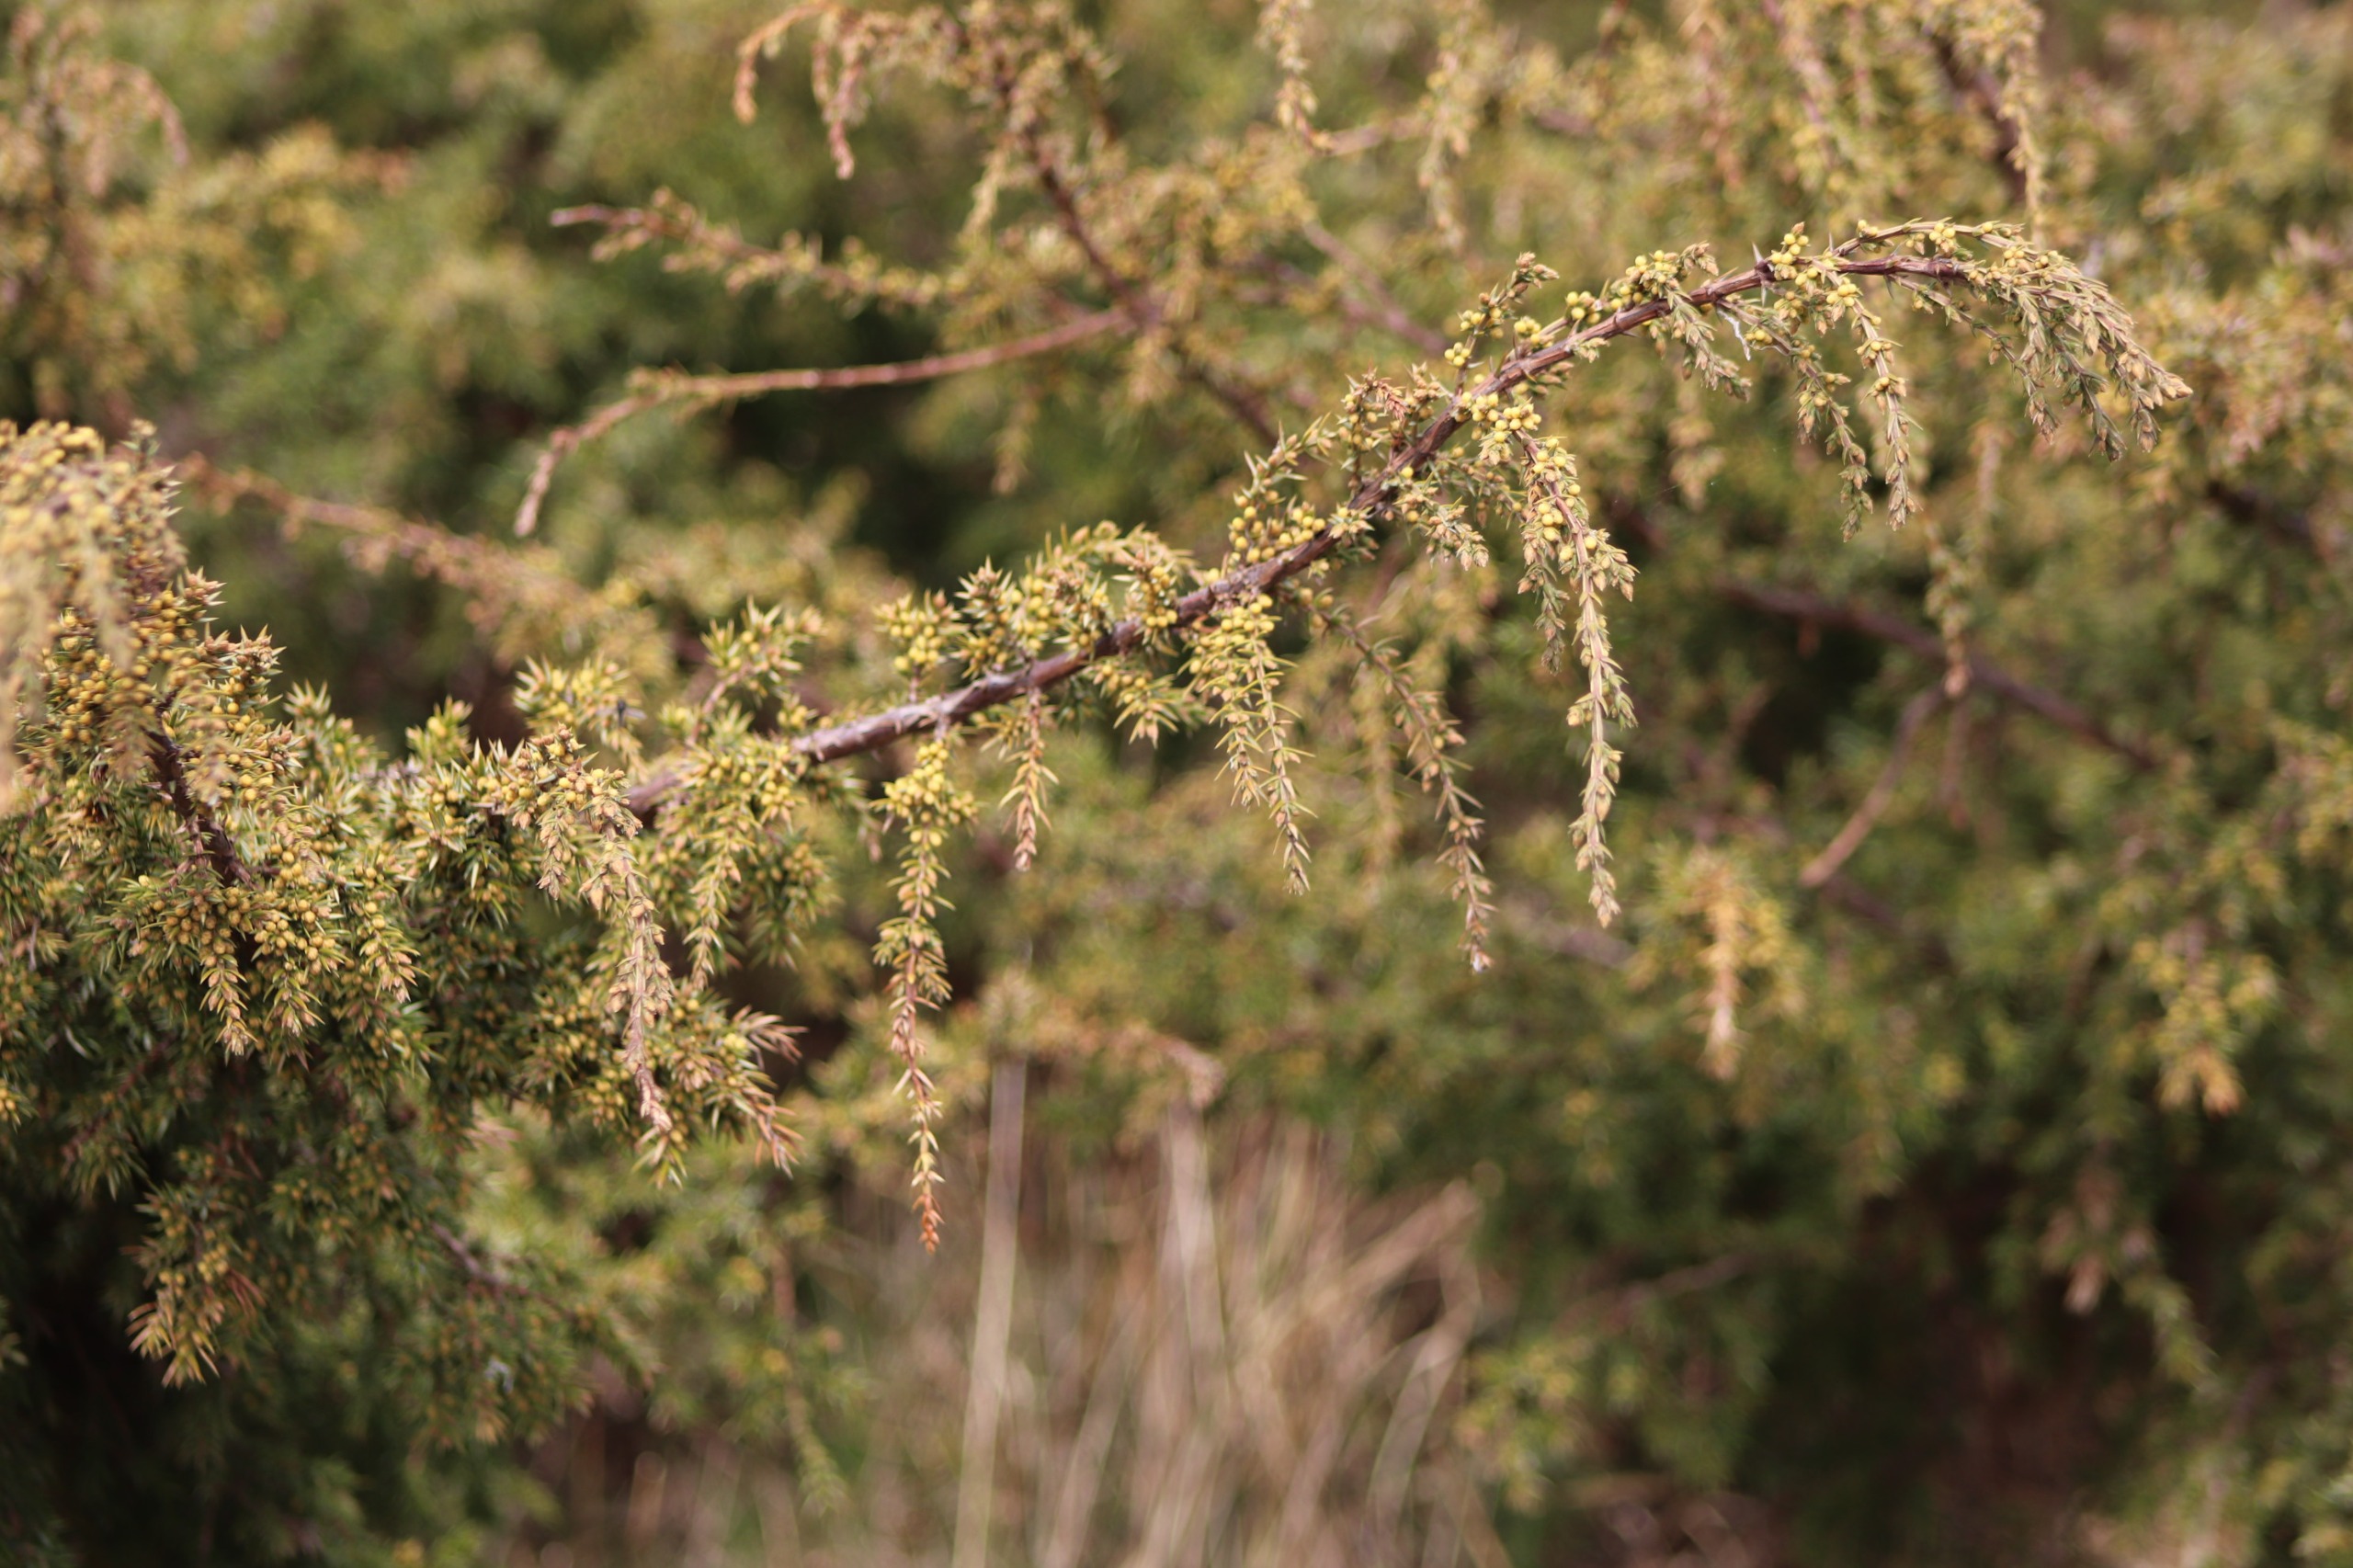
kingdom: Plantae
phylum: Tracheophyta
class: Pinopsida
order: Pinales
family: Cupressaceae
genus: Juniperus
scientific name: Juniperus communis
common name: Almindelig ene
